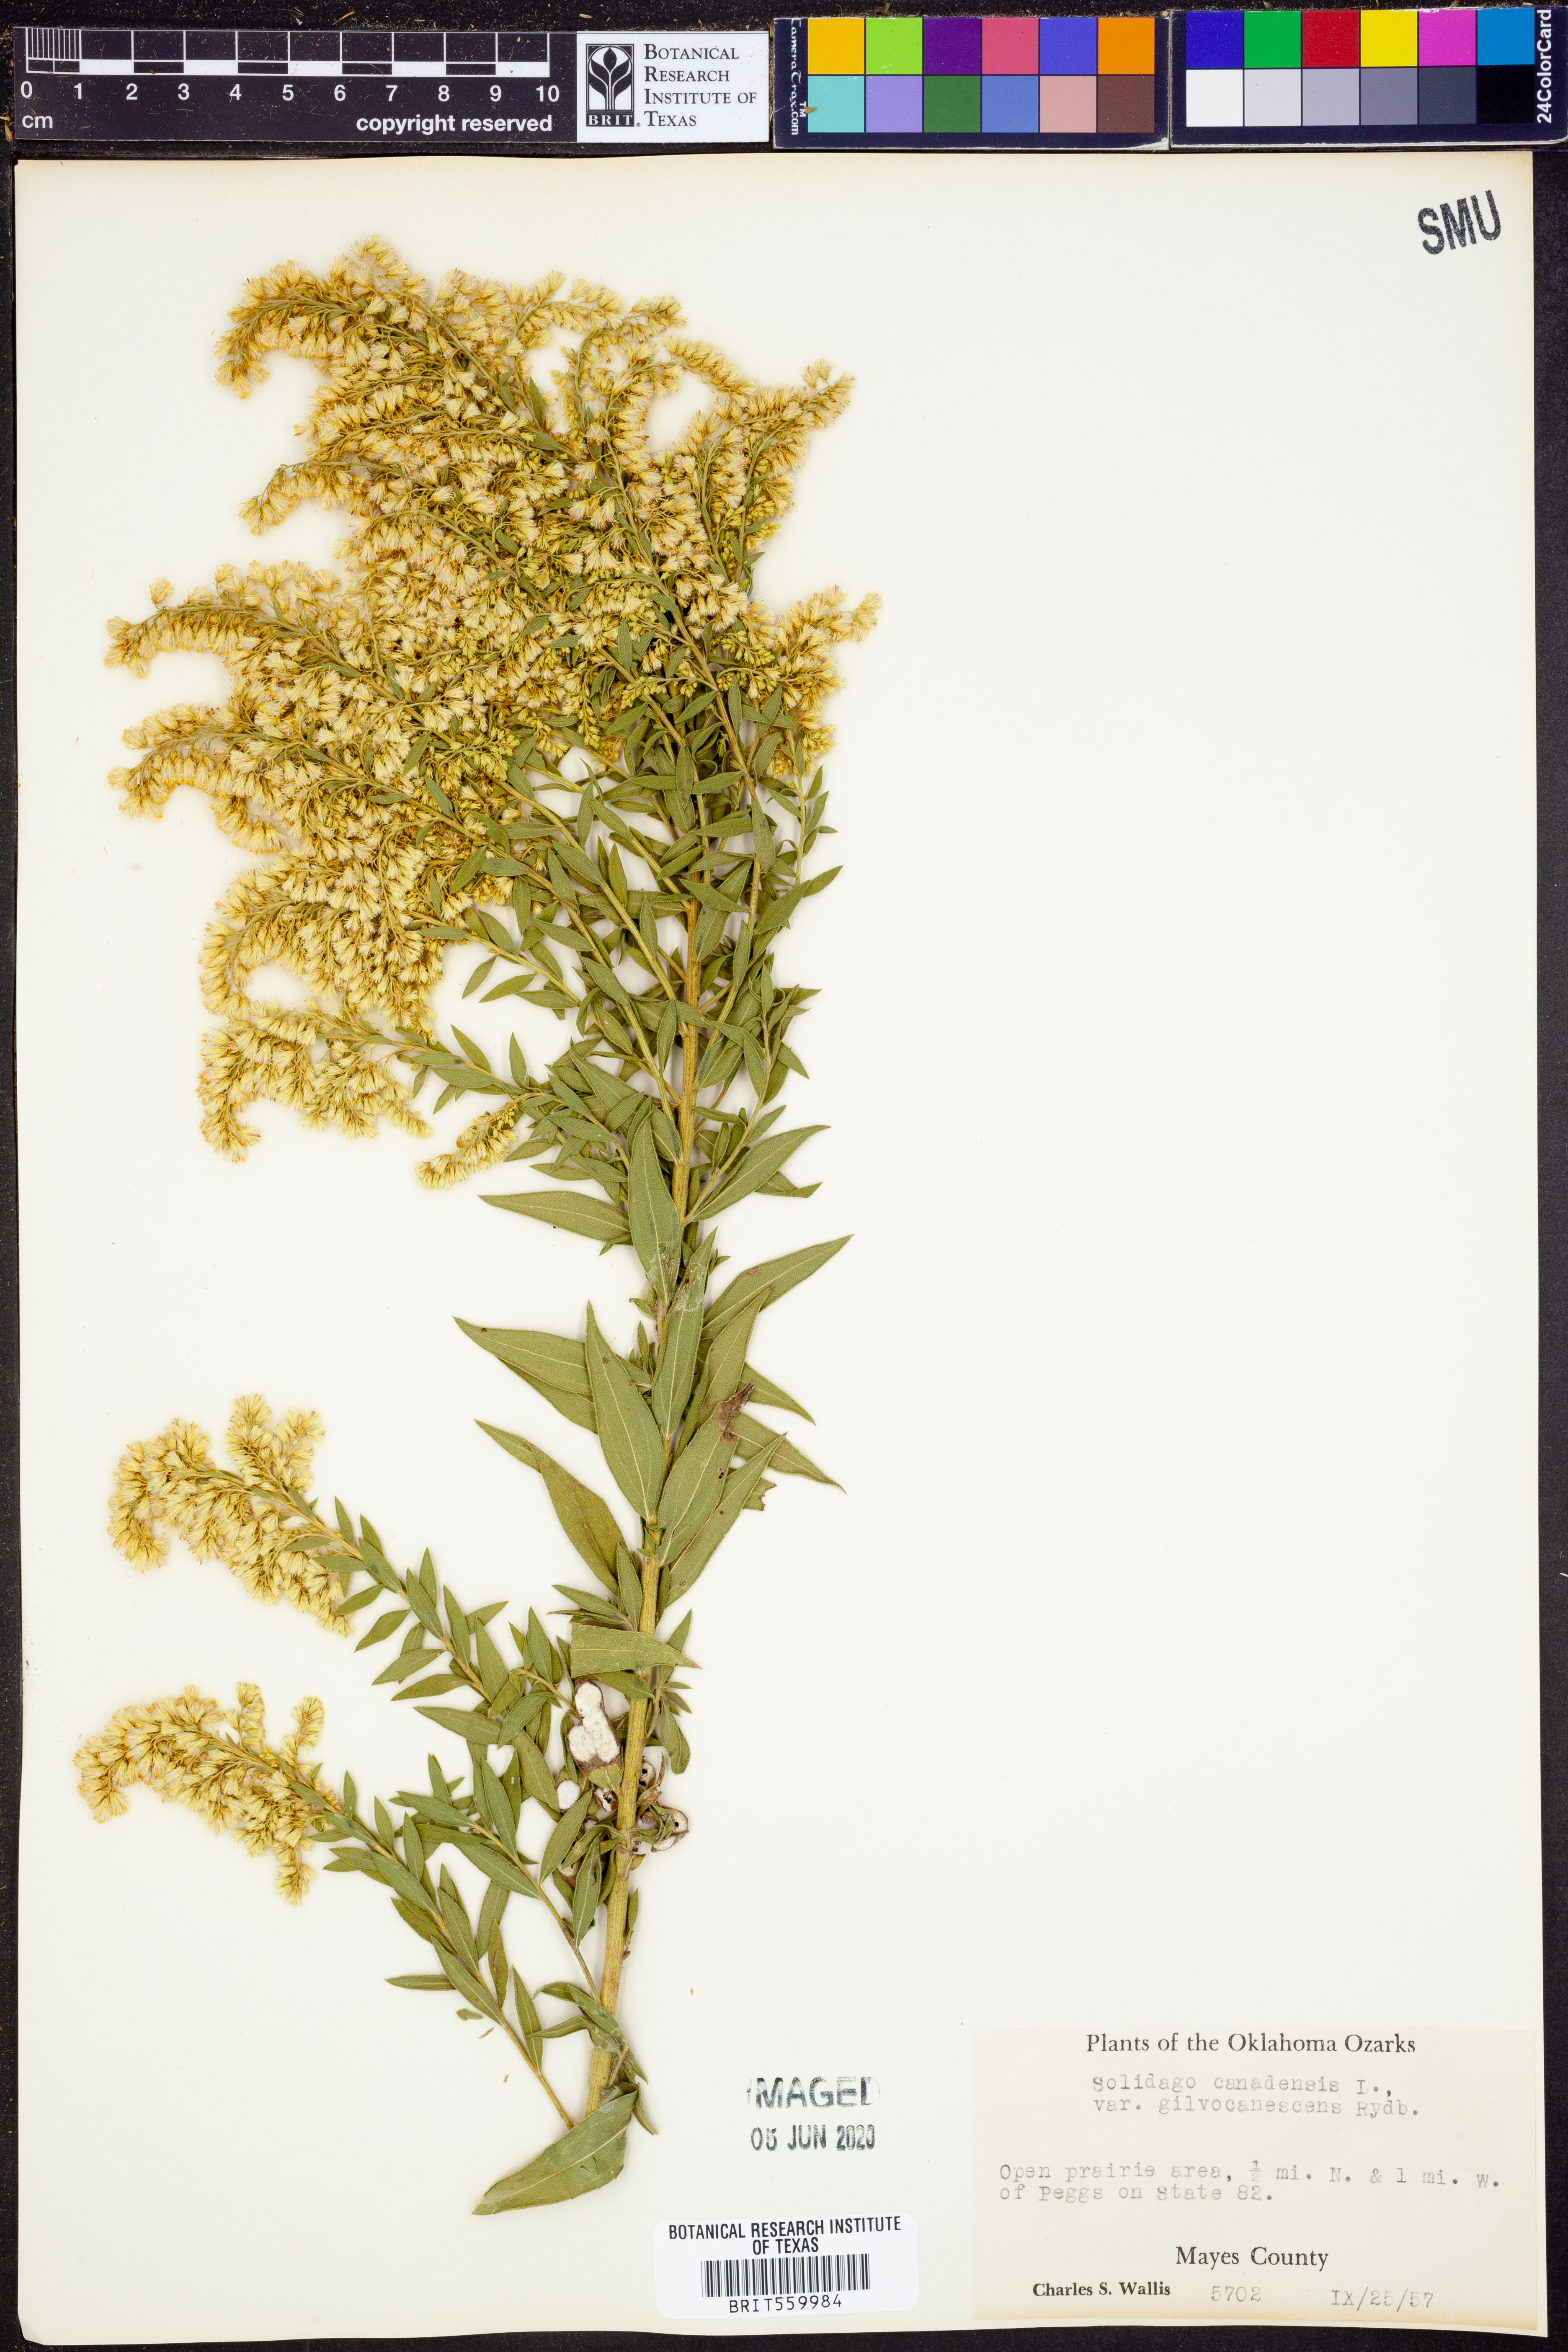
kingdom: Plantae
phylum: Tracheophyta
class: Magnoliopsida
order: Asterales
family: Asteraceae
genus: Solidago
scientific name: Solidago altissima
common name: Late goldenrod
